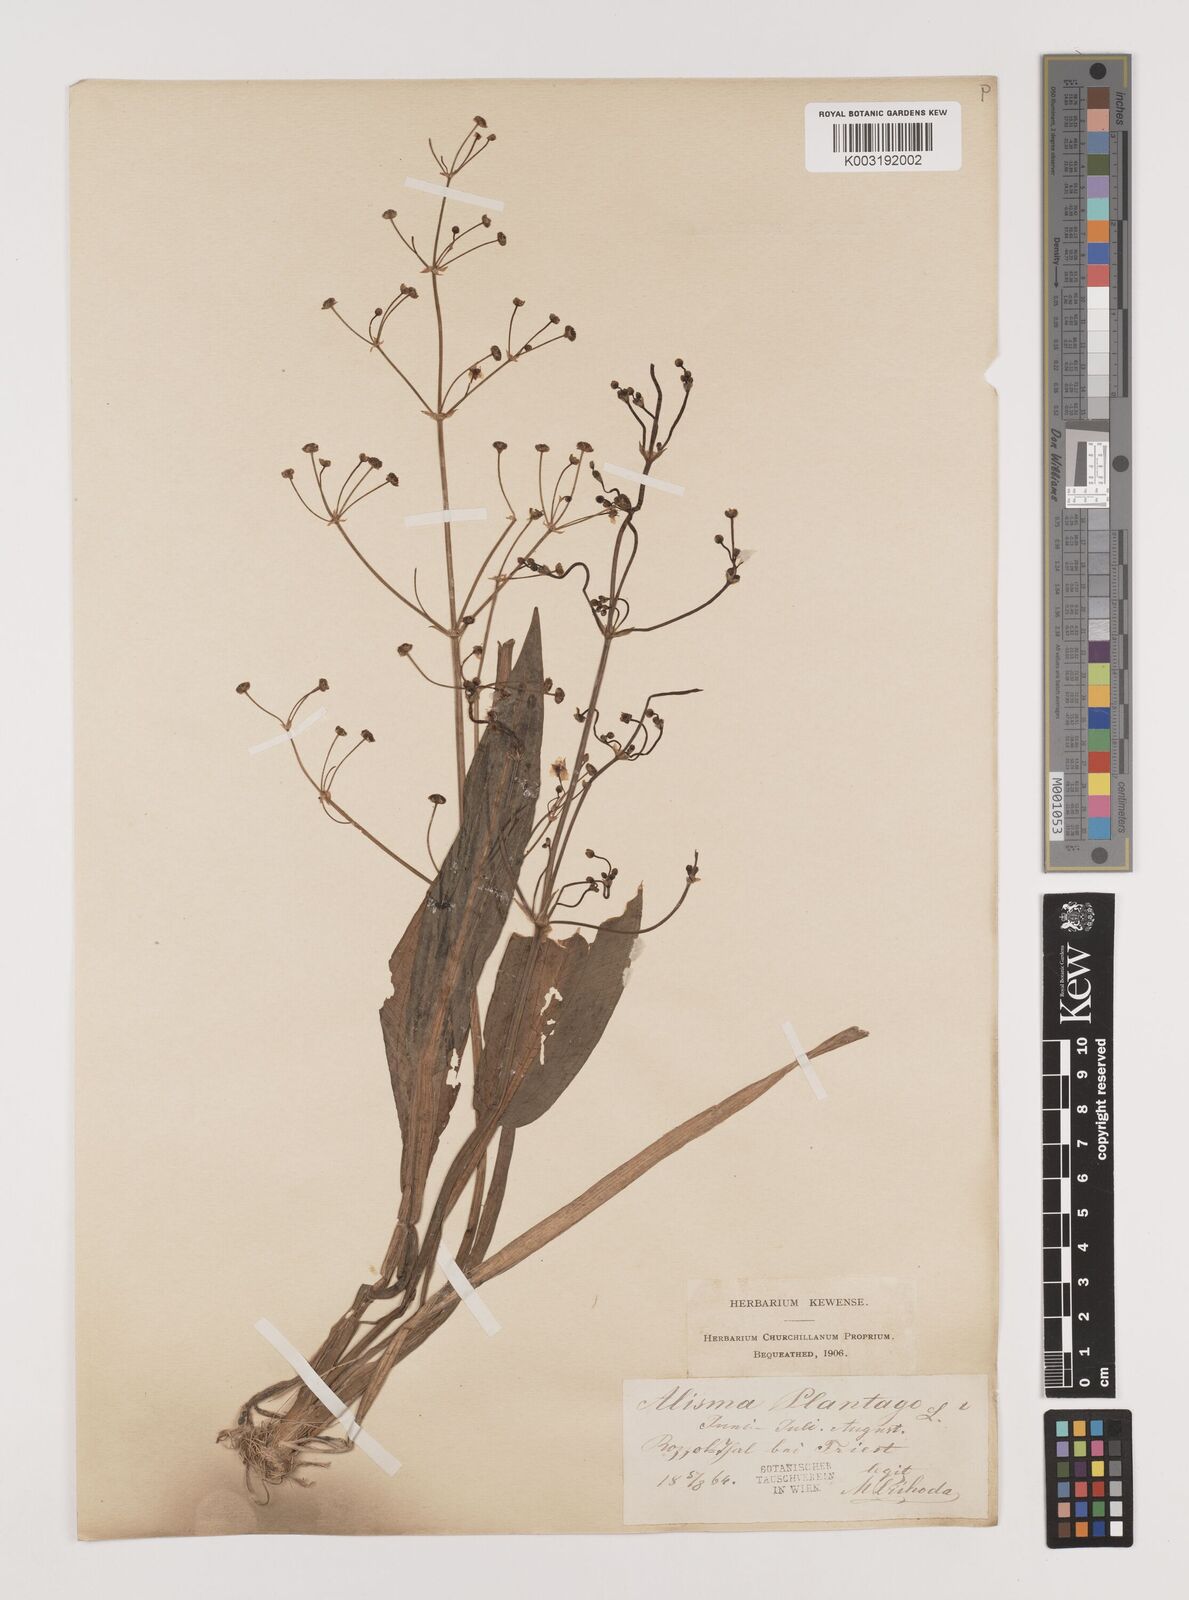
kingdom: Plantae
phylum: Tracheophyta
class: Liliopsida
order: Alismatales
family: Alismataceae
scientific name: Alismataceae
